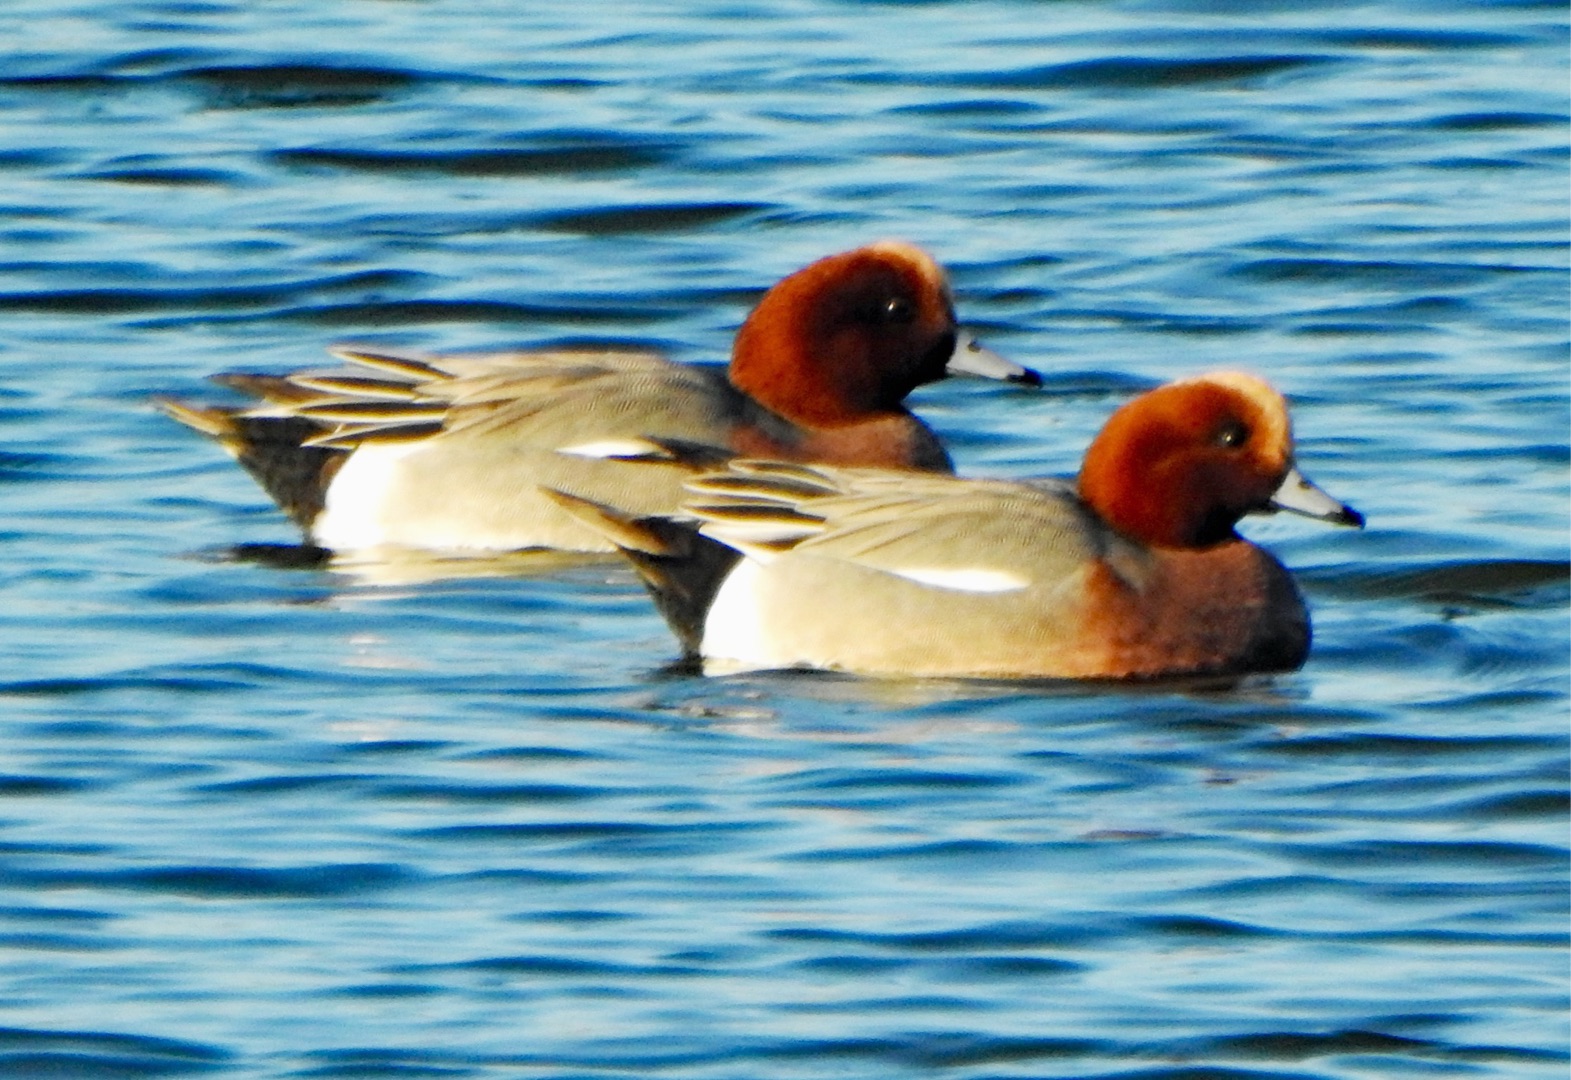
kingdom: Animalia
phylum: Chordata
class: Aves
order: Anseriformes
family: Anatidae
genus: Mareca
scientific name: Mareca penelope
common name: Pibeand
